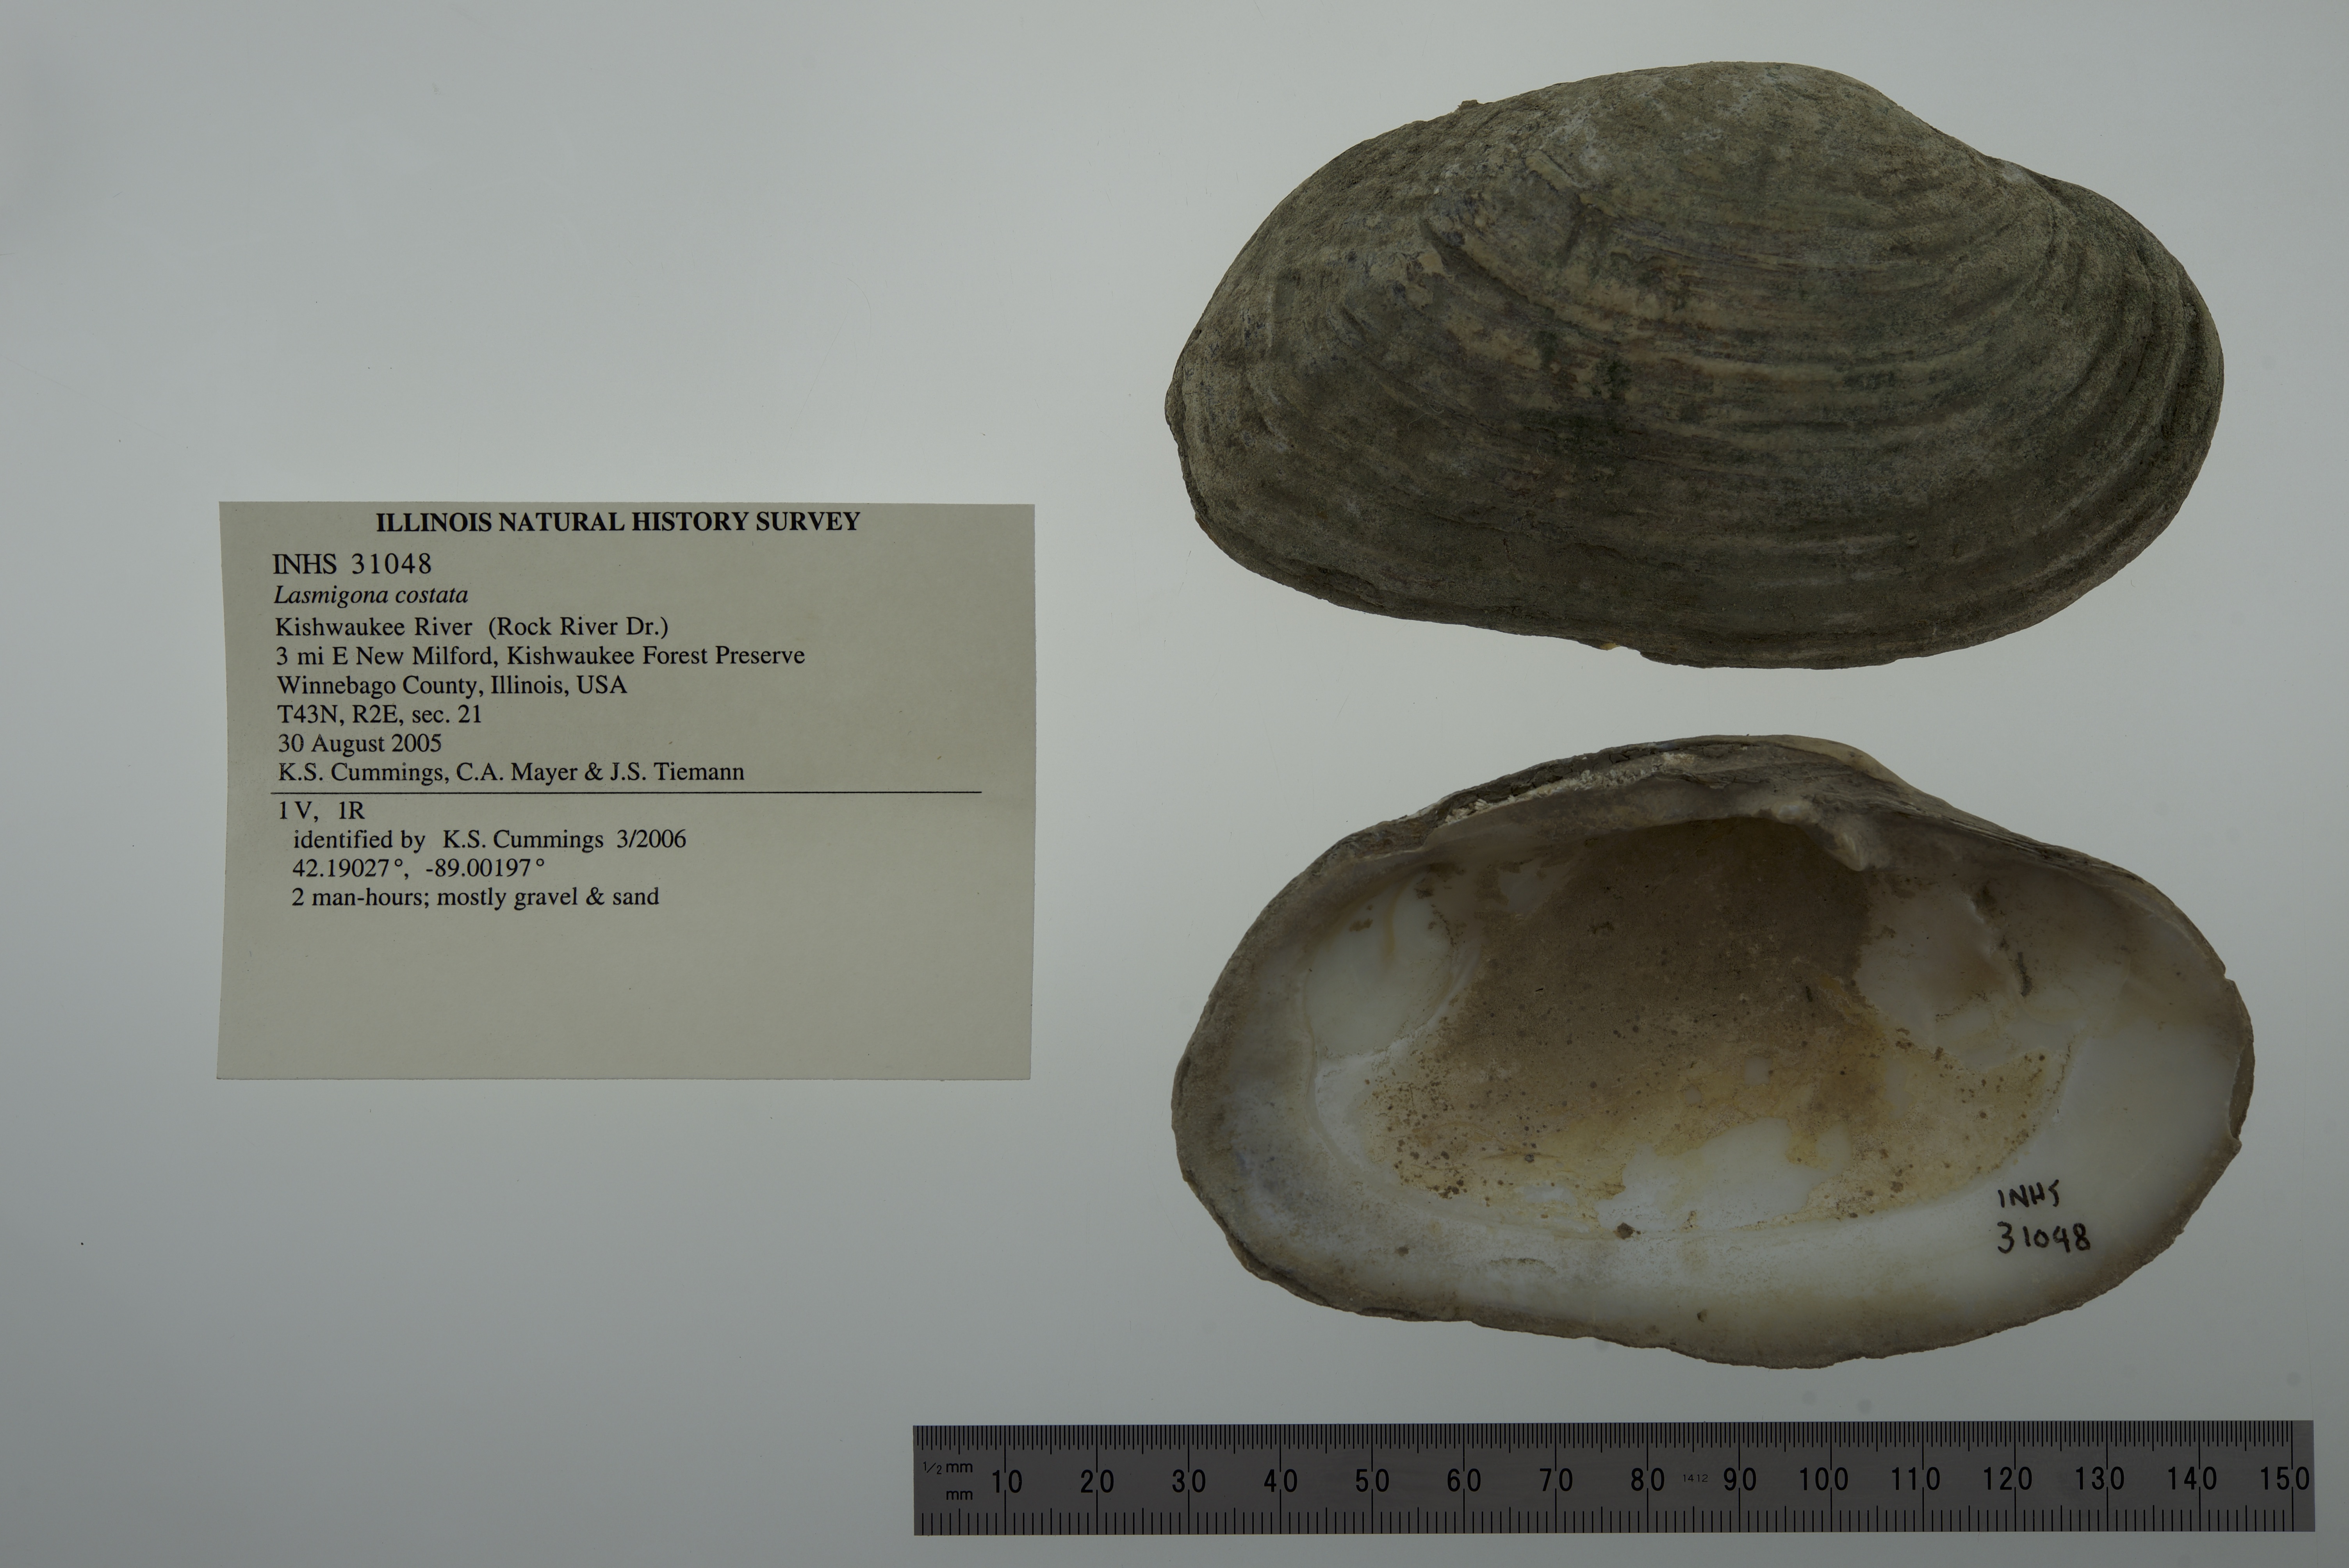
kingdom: Animalia
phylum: Mollusca
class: Bivalvia
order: Unionida
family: Unionidae
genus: Lasmigona
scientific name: Lasmigona costata
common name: Flutedshell
